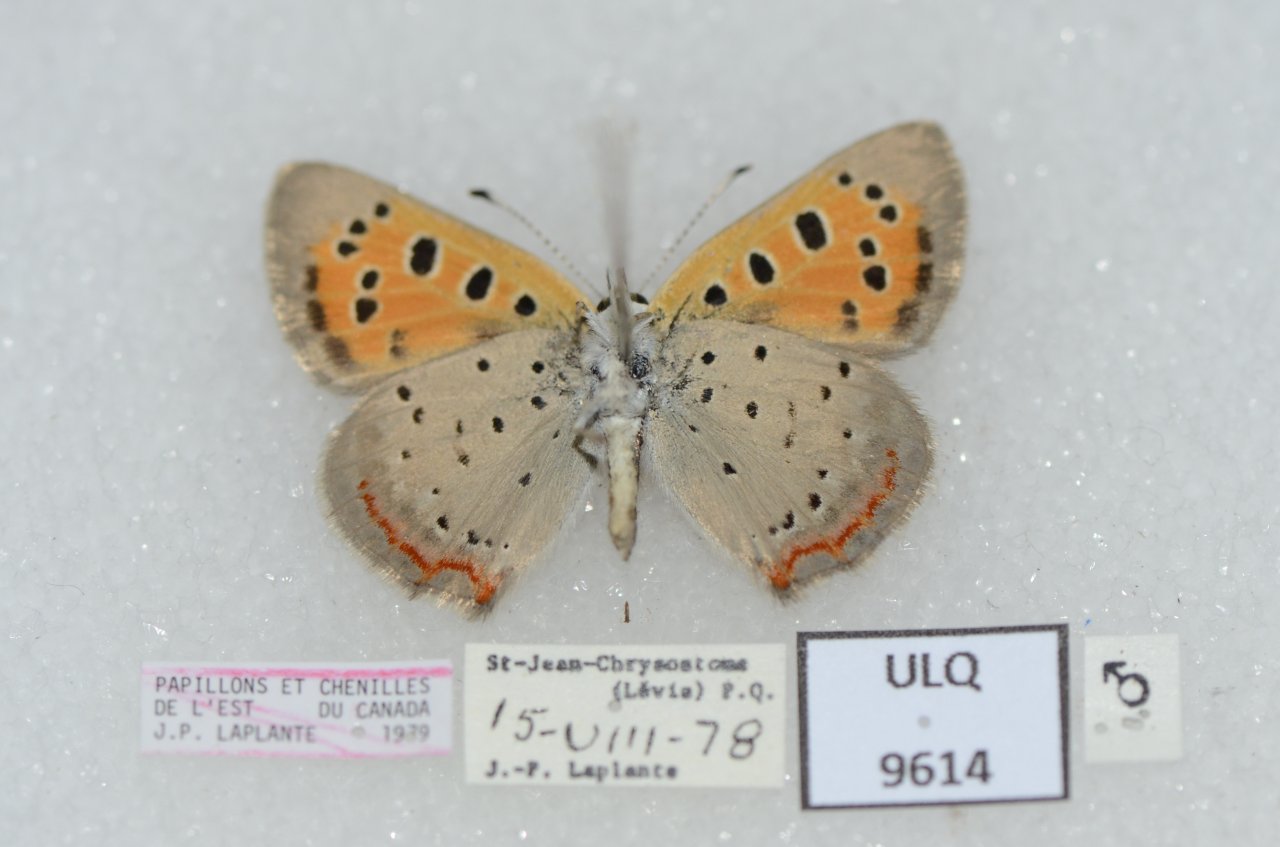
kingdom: Animalia
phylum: Arthropoda
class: Insecta
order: Lepidoptera
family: Lycaenidae
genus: Lycaena
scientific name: Lycaena phlaeas
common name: American Copper
